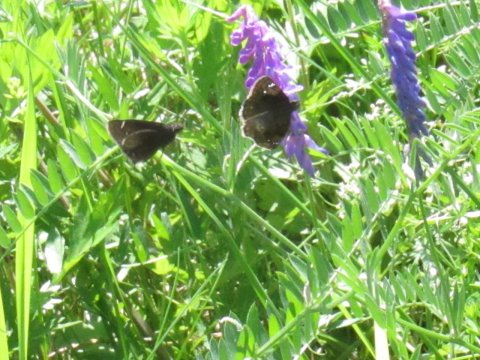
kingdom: Animalia
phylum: Arthropoda
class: Insecta
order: Lepidoptera
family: Hesperiidae
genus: Gesta
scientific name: Gesta
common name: Wild Indigo Duskywing
